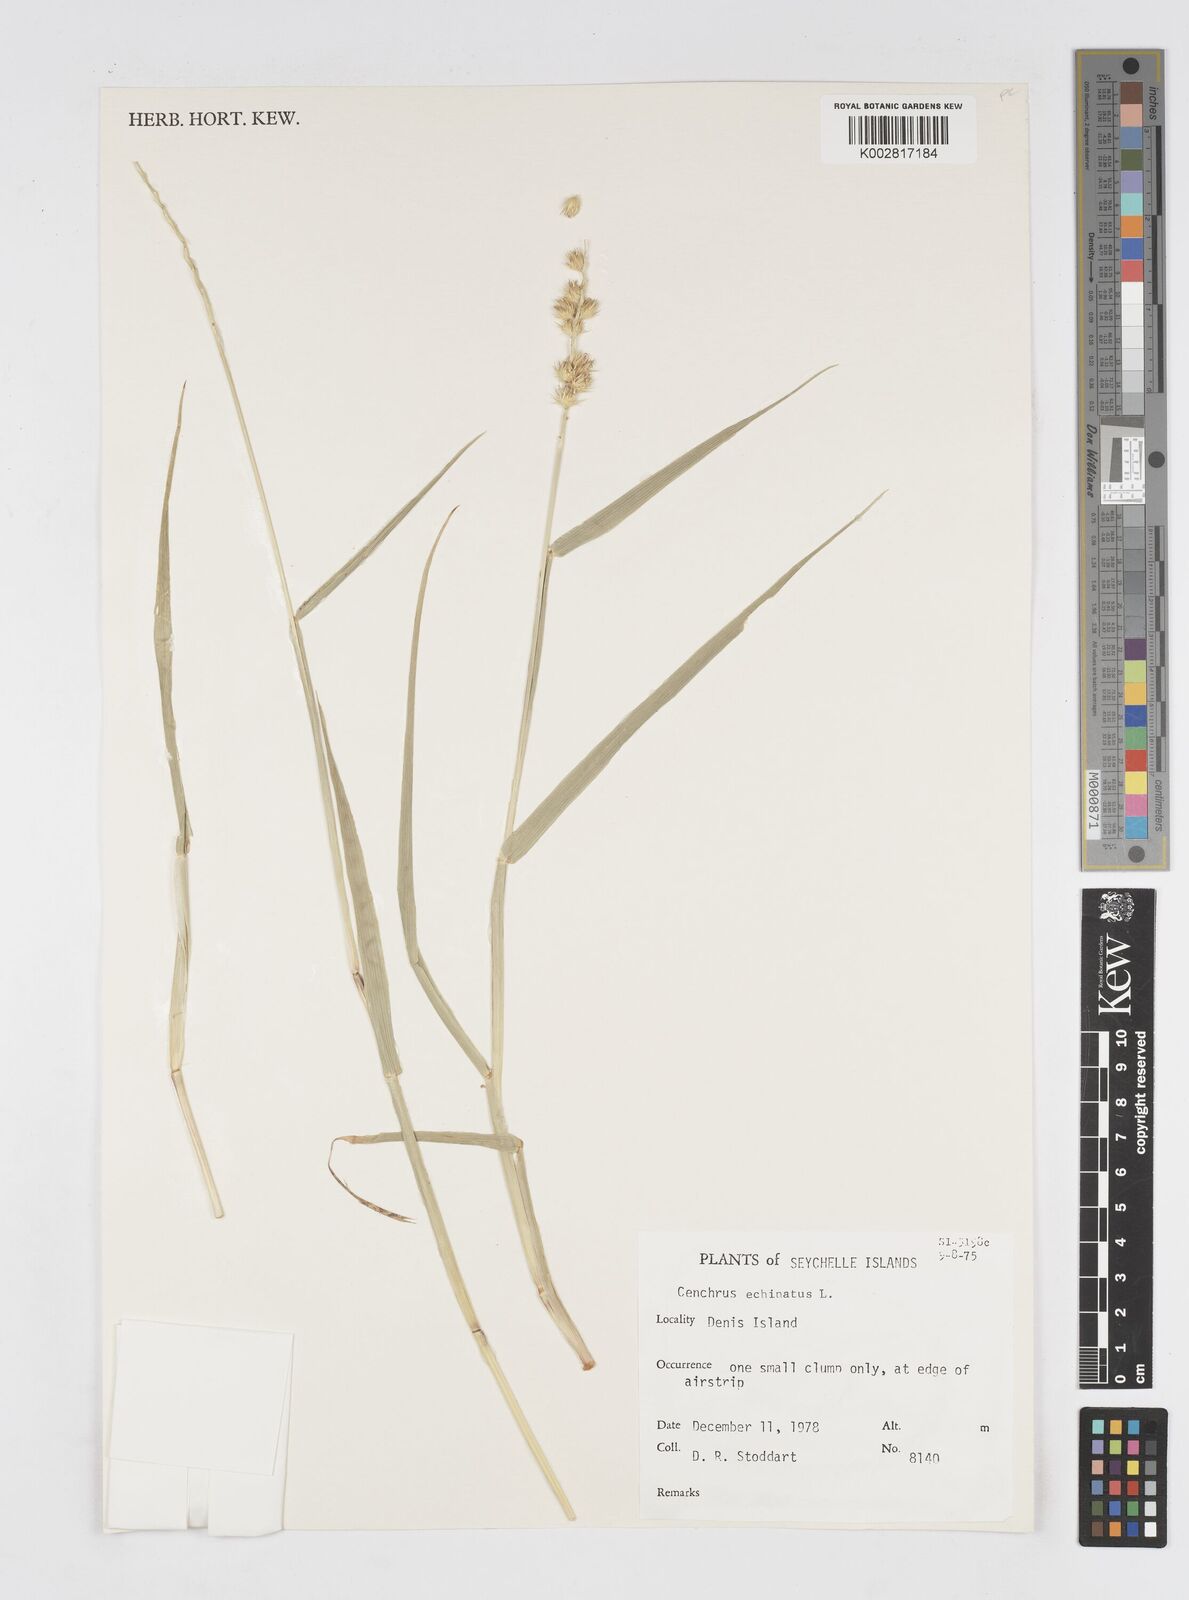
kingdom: Plantae
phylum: Tracheophyta
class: Liliopsida
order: Poales
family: Poaceae
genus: Cenchrus
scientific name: Cenchrus
